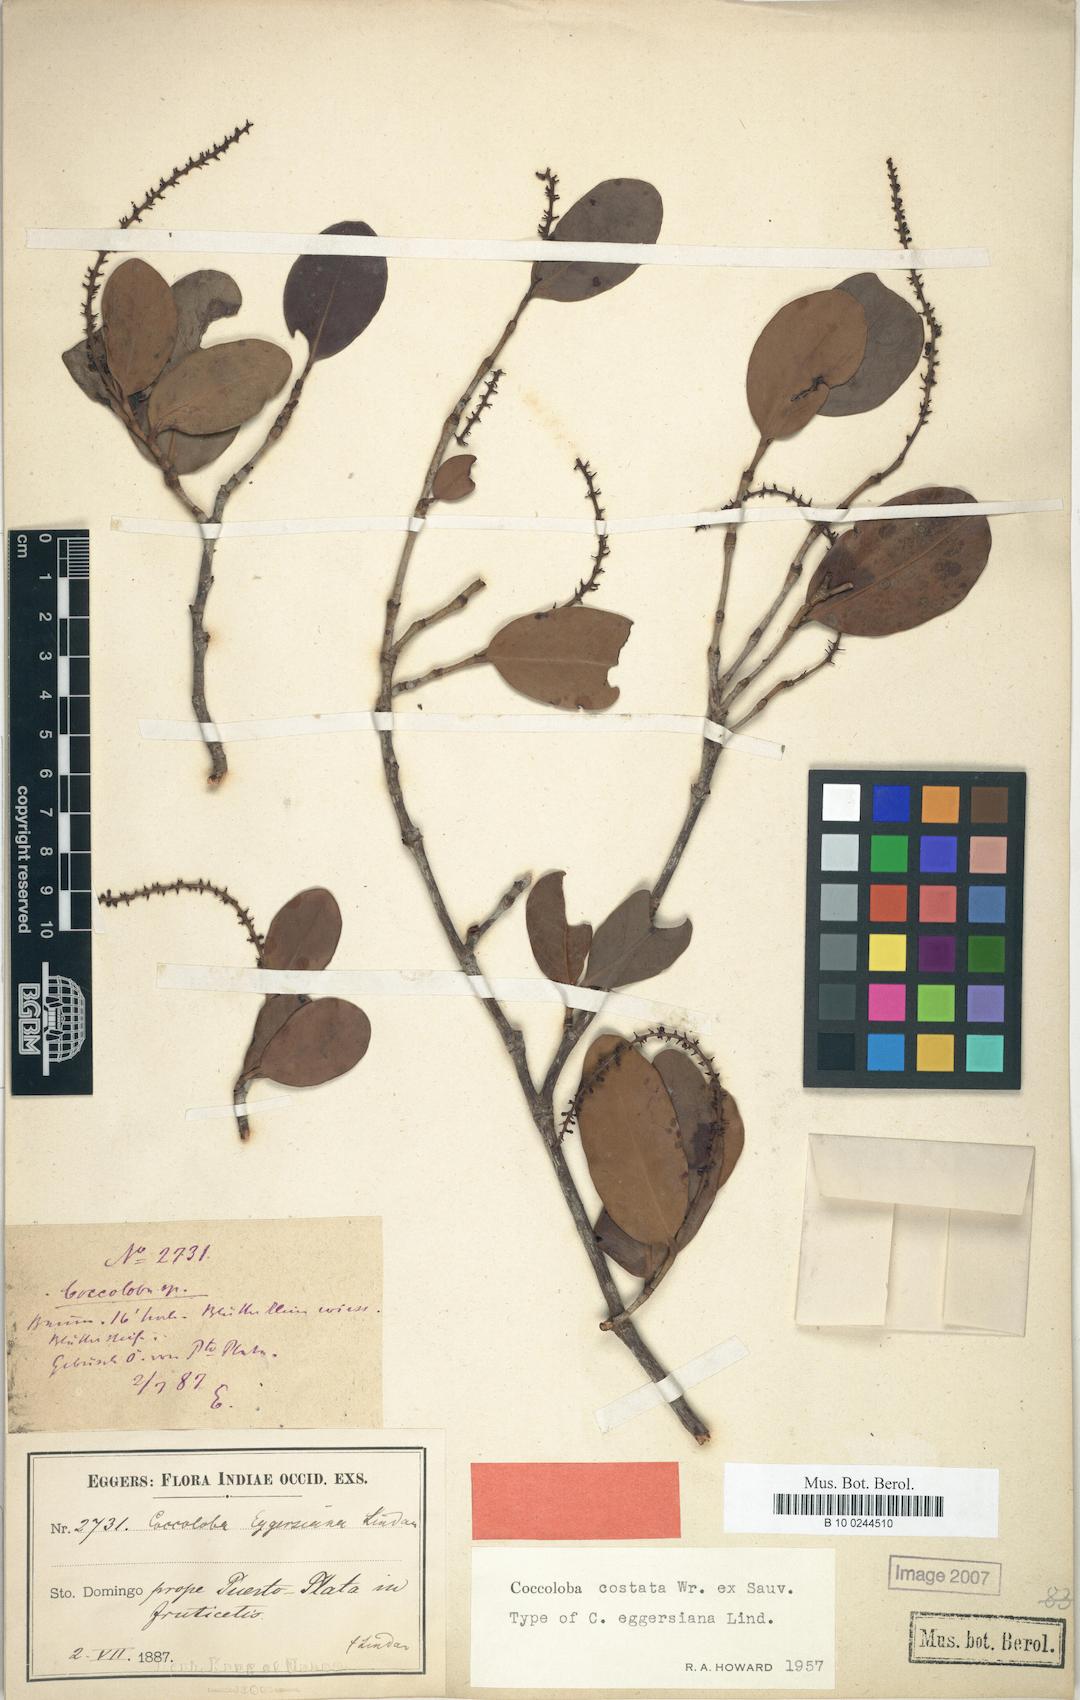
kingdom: Plantae
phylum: Tracheophyta
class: Magnoliopsida
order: Caryophyllales
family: Polygonaceae
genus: Coccoloba
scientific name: Coccoloba costata
